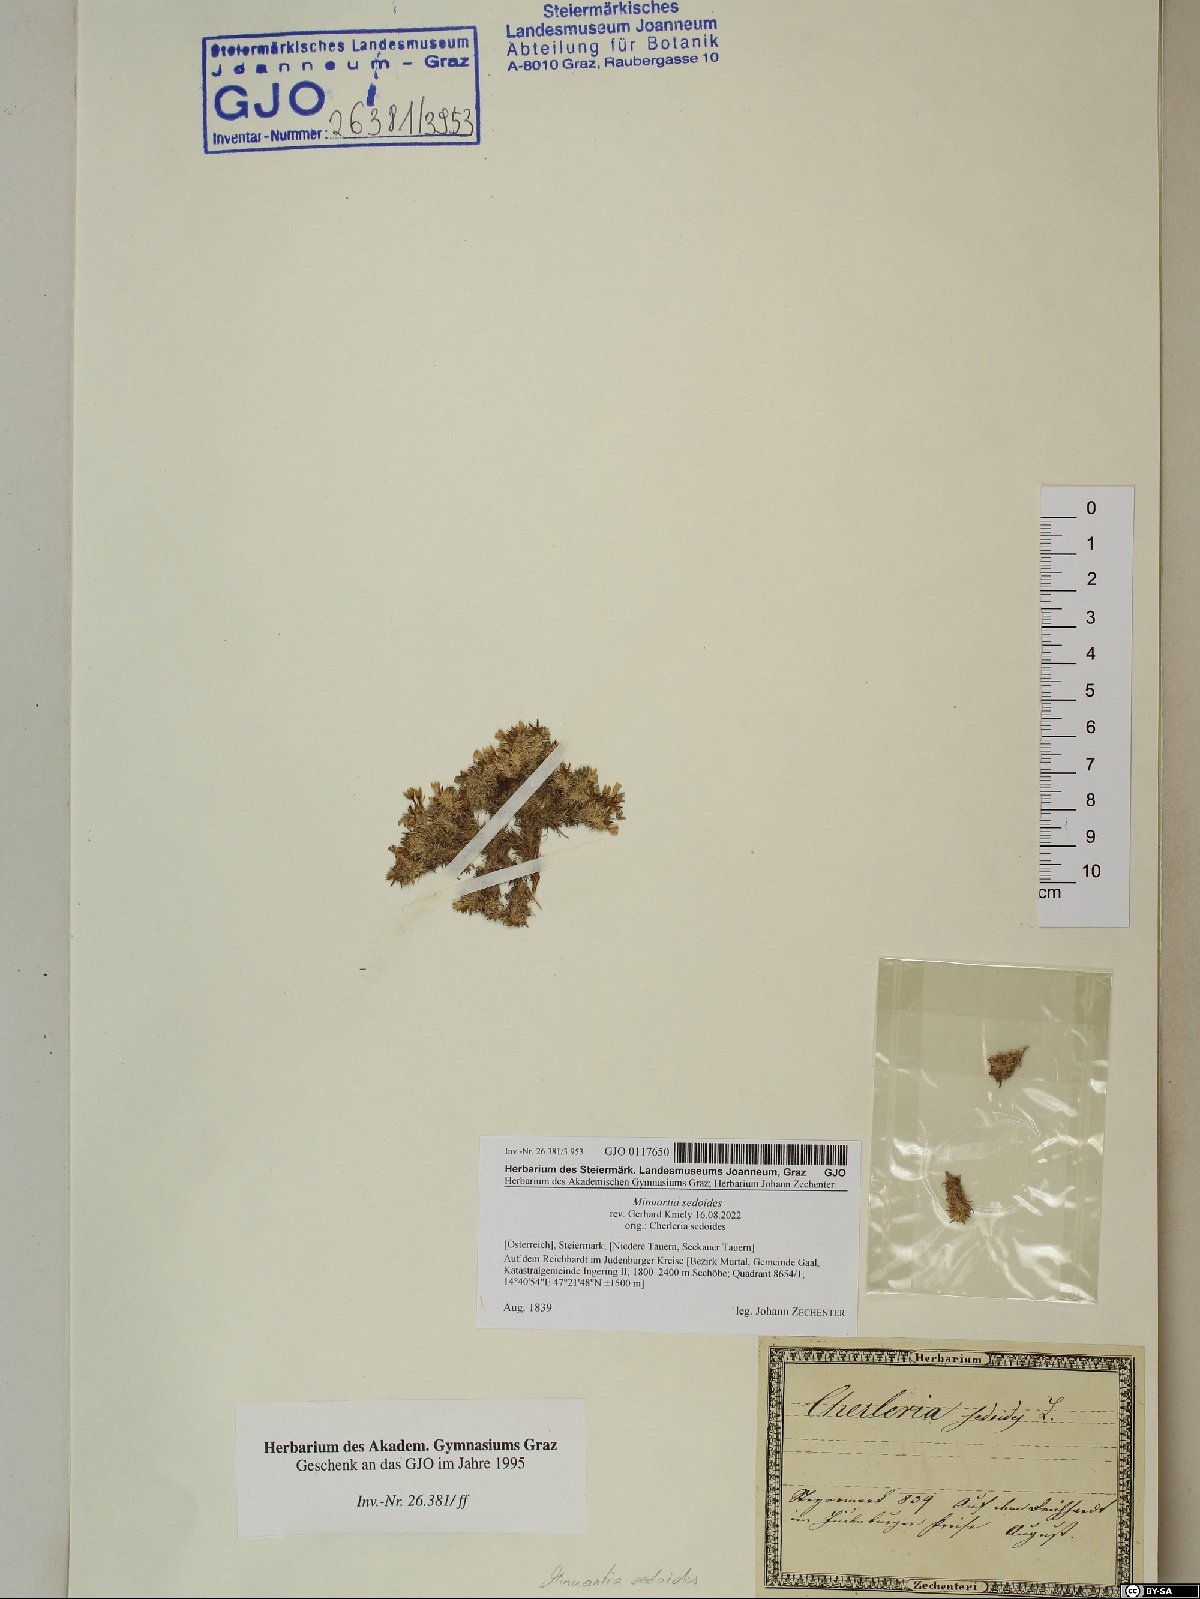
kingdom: Plantae
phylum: Tracheophyta
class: Magnoliopsida
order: Caryophyllales
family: Caryophyllaceae
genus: Cherleria
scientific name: Cherleria sedoides
